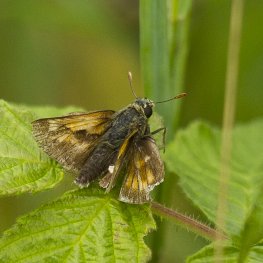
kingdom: Animalia
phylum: Arthropoda
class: Insecta
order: Lepidoptera
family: Hesperiidae
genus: Polites
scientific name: Polites
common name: Long Dash Skipper
